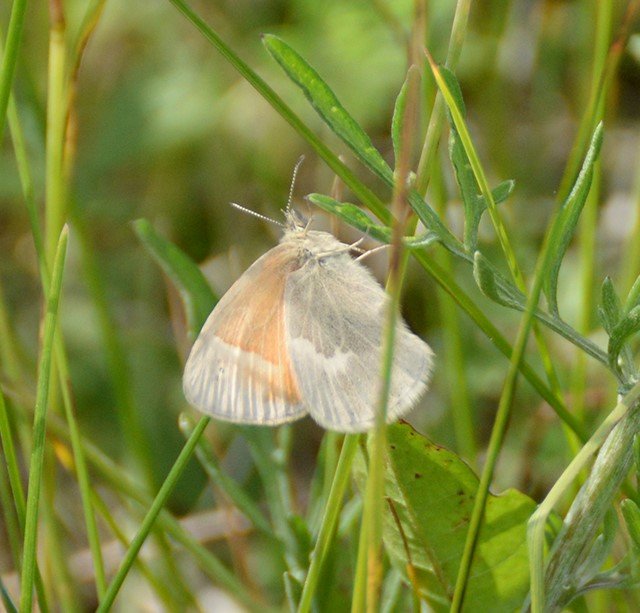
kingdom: Animalia
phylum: Arthropoda
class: Insecta
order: Lepidoptera
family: Nymphalidae
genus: Coenonympha
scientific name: Coenonympha tullia
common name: Large Heath
